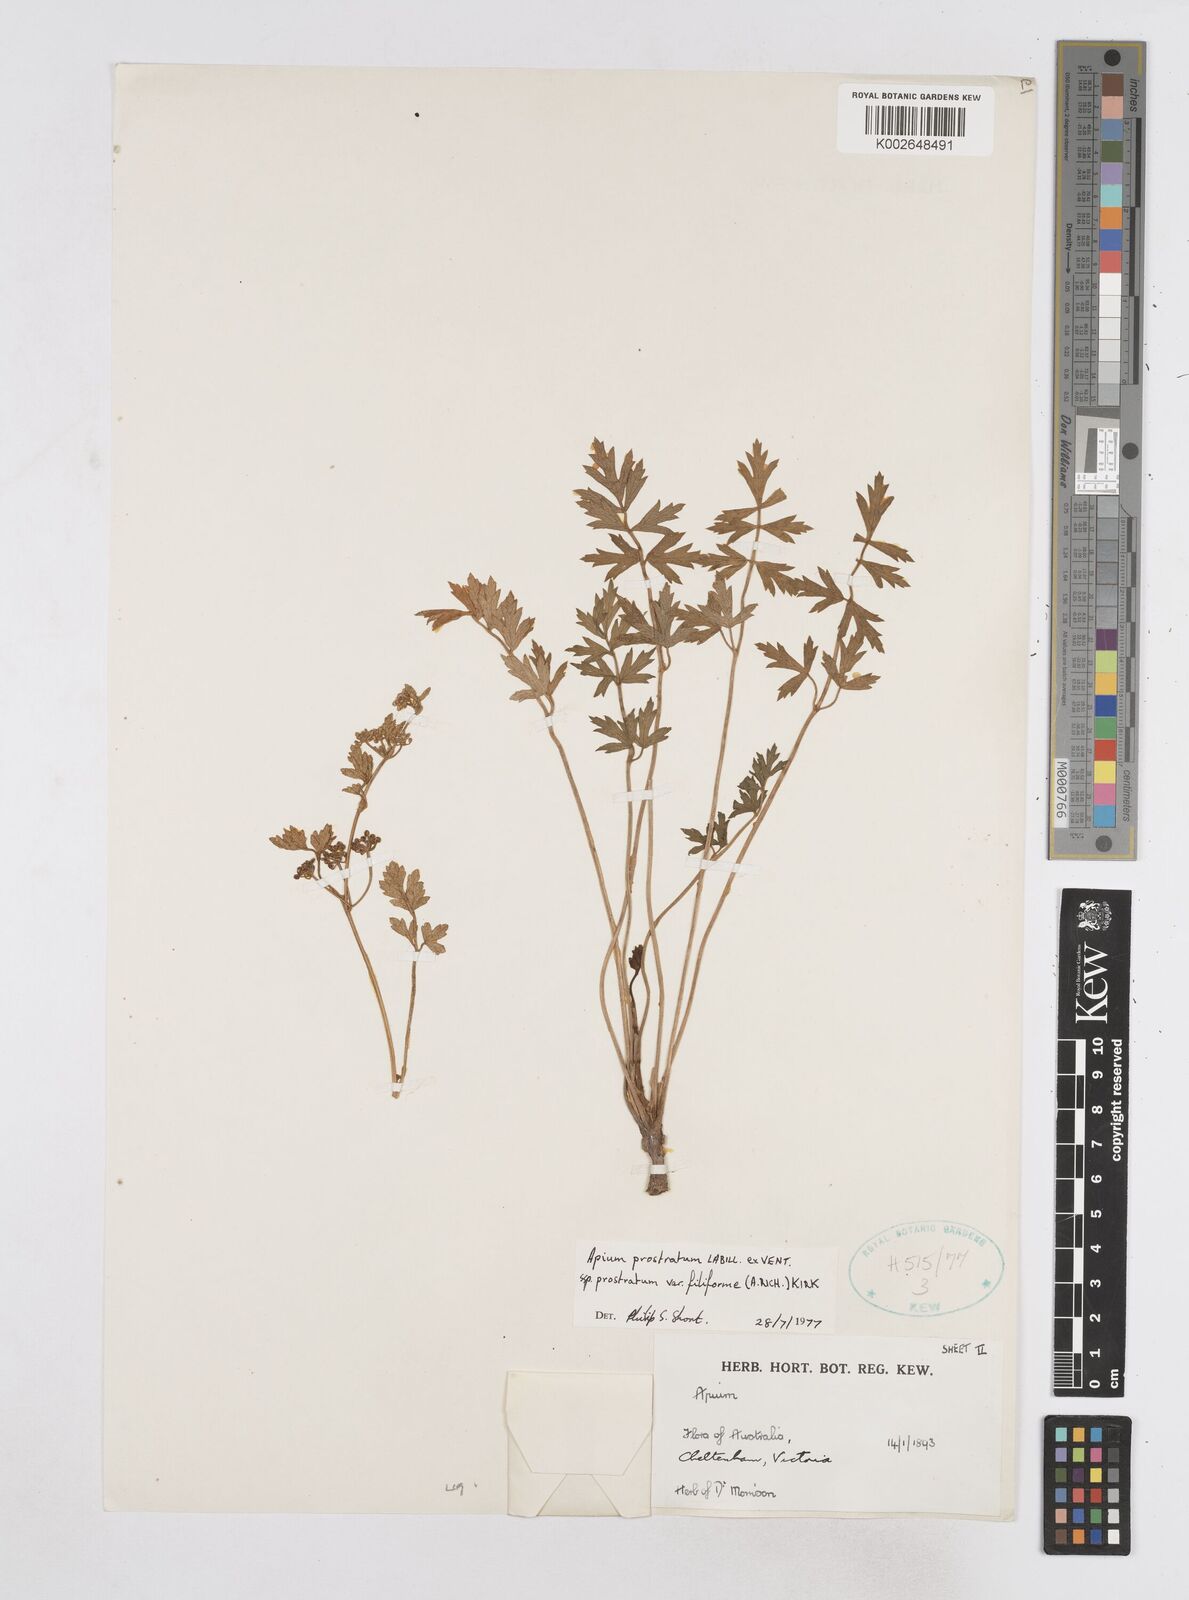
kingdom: Plantae
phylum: Tracheophyta
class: Magnoliopsida
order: Apiales
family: Apiaceae
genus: Apium
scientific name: Apium prostratum
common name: Prostrate marshwort
